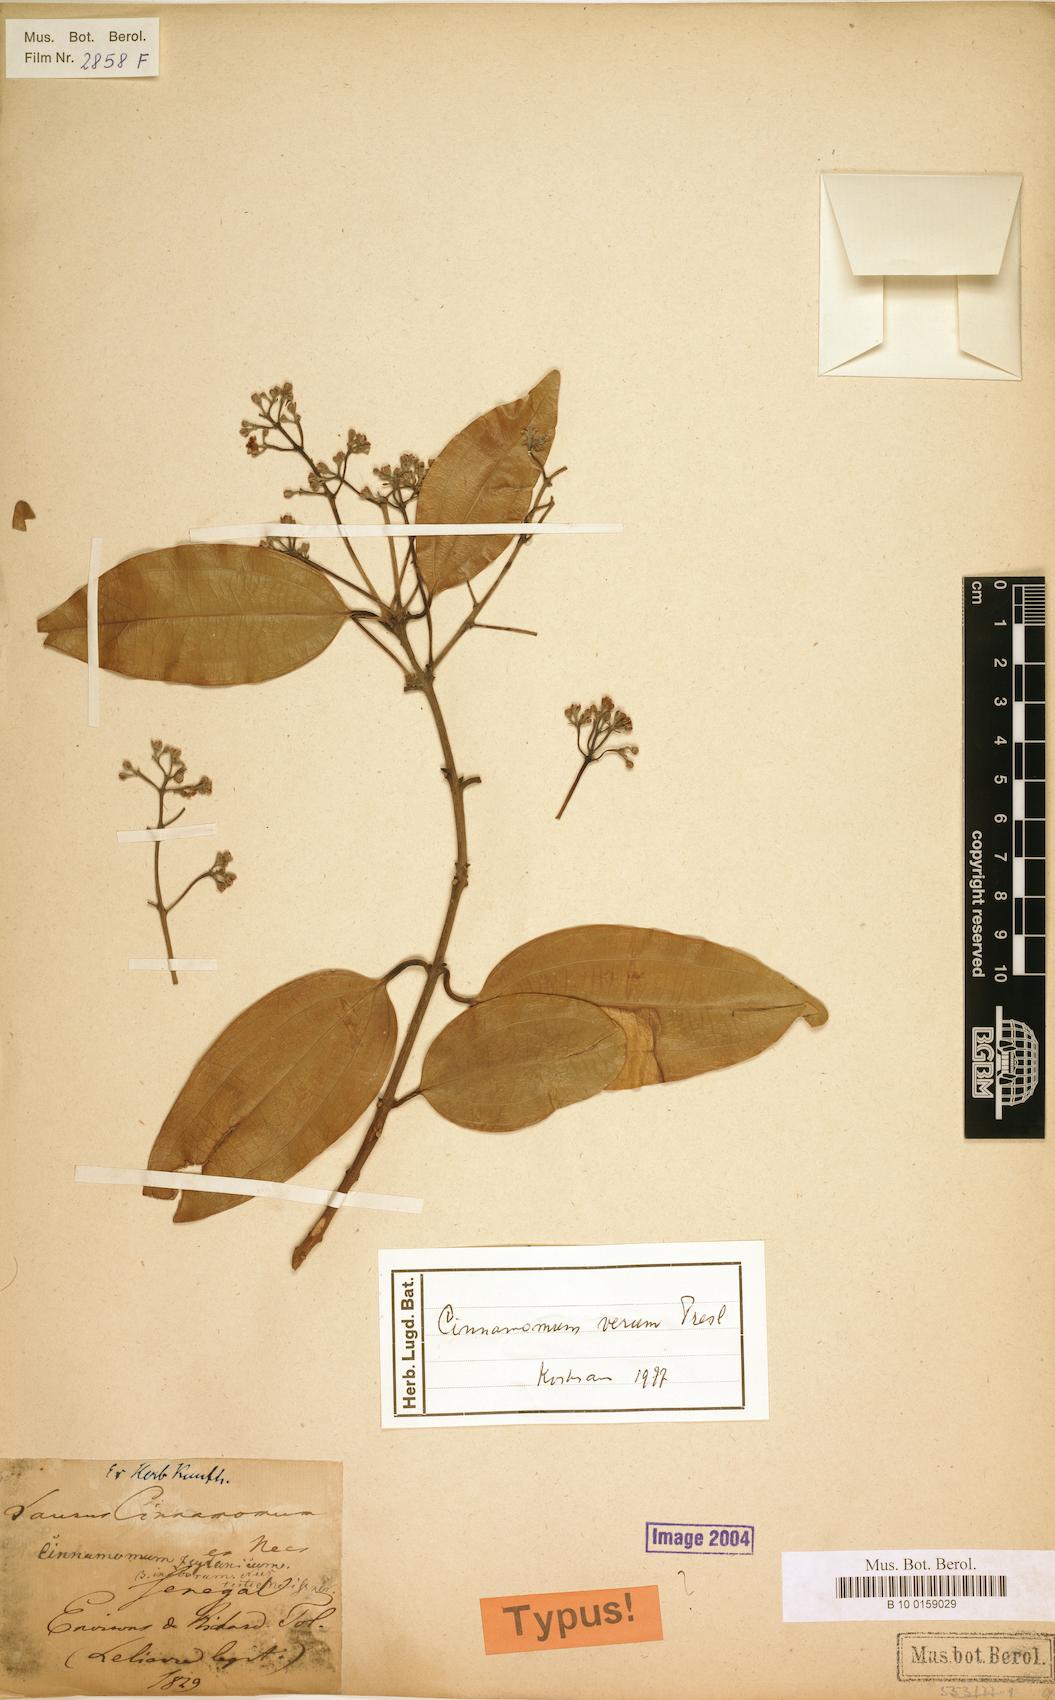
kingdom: Plantae
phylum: Tracheophyta
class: Magnoliopsida
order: Laurales
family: Lauraceae
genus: Cinnamomum
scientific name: Cinnamomum verum
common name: Cinnamon
